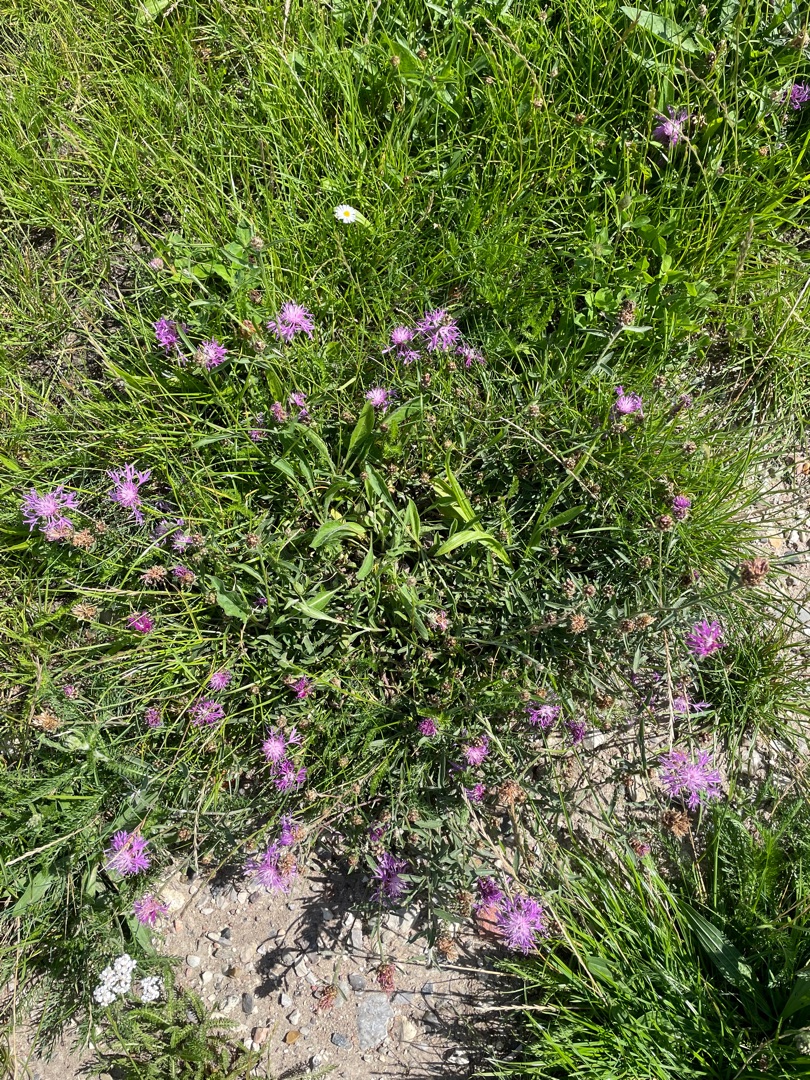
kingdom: Plantae
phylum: Tracheophyta
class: Magnoliopsida
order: Asterales
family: Asteraceae
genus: Centaurea
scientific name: Centaurea jacea
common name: Almindelig knopurt
